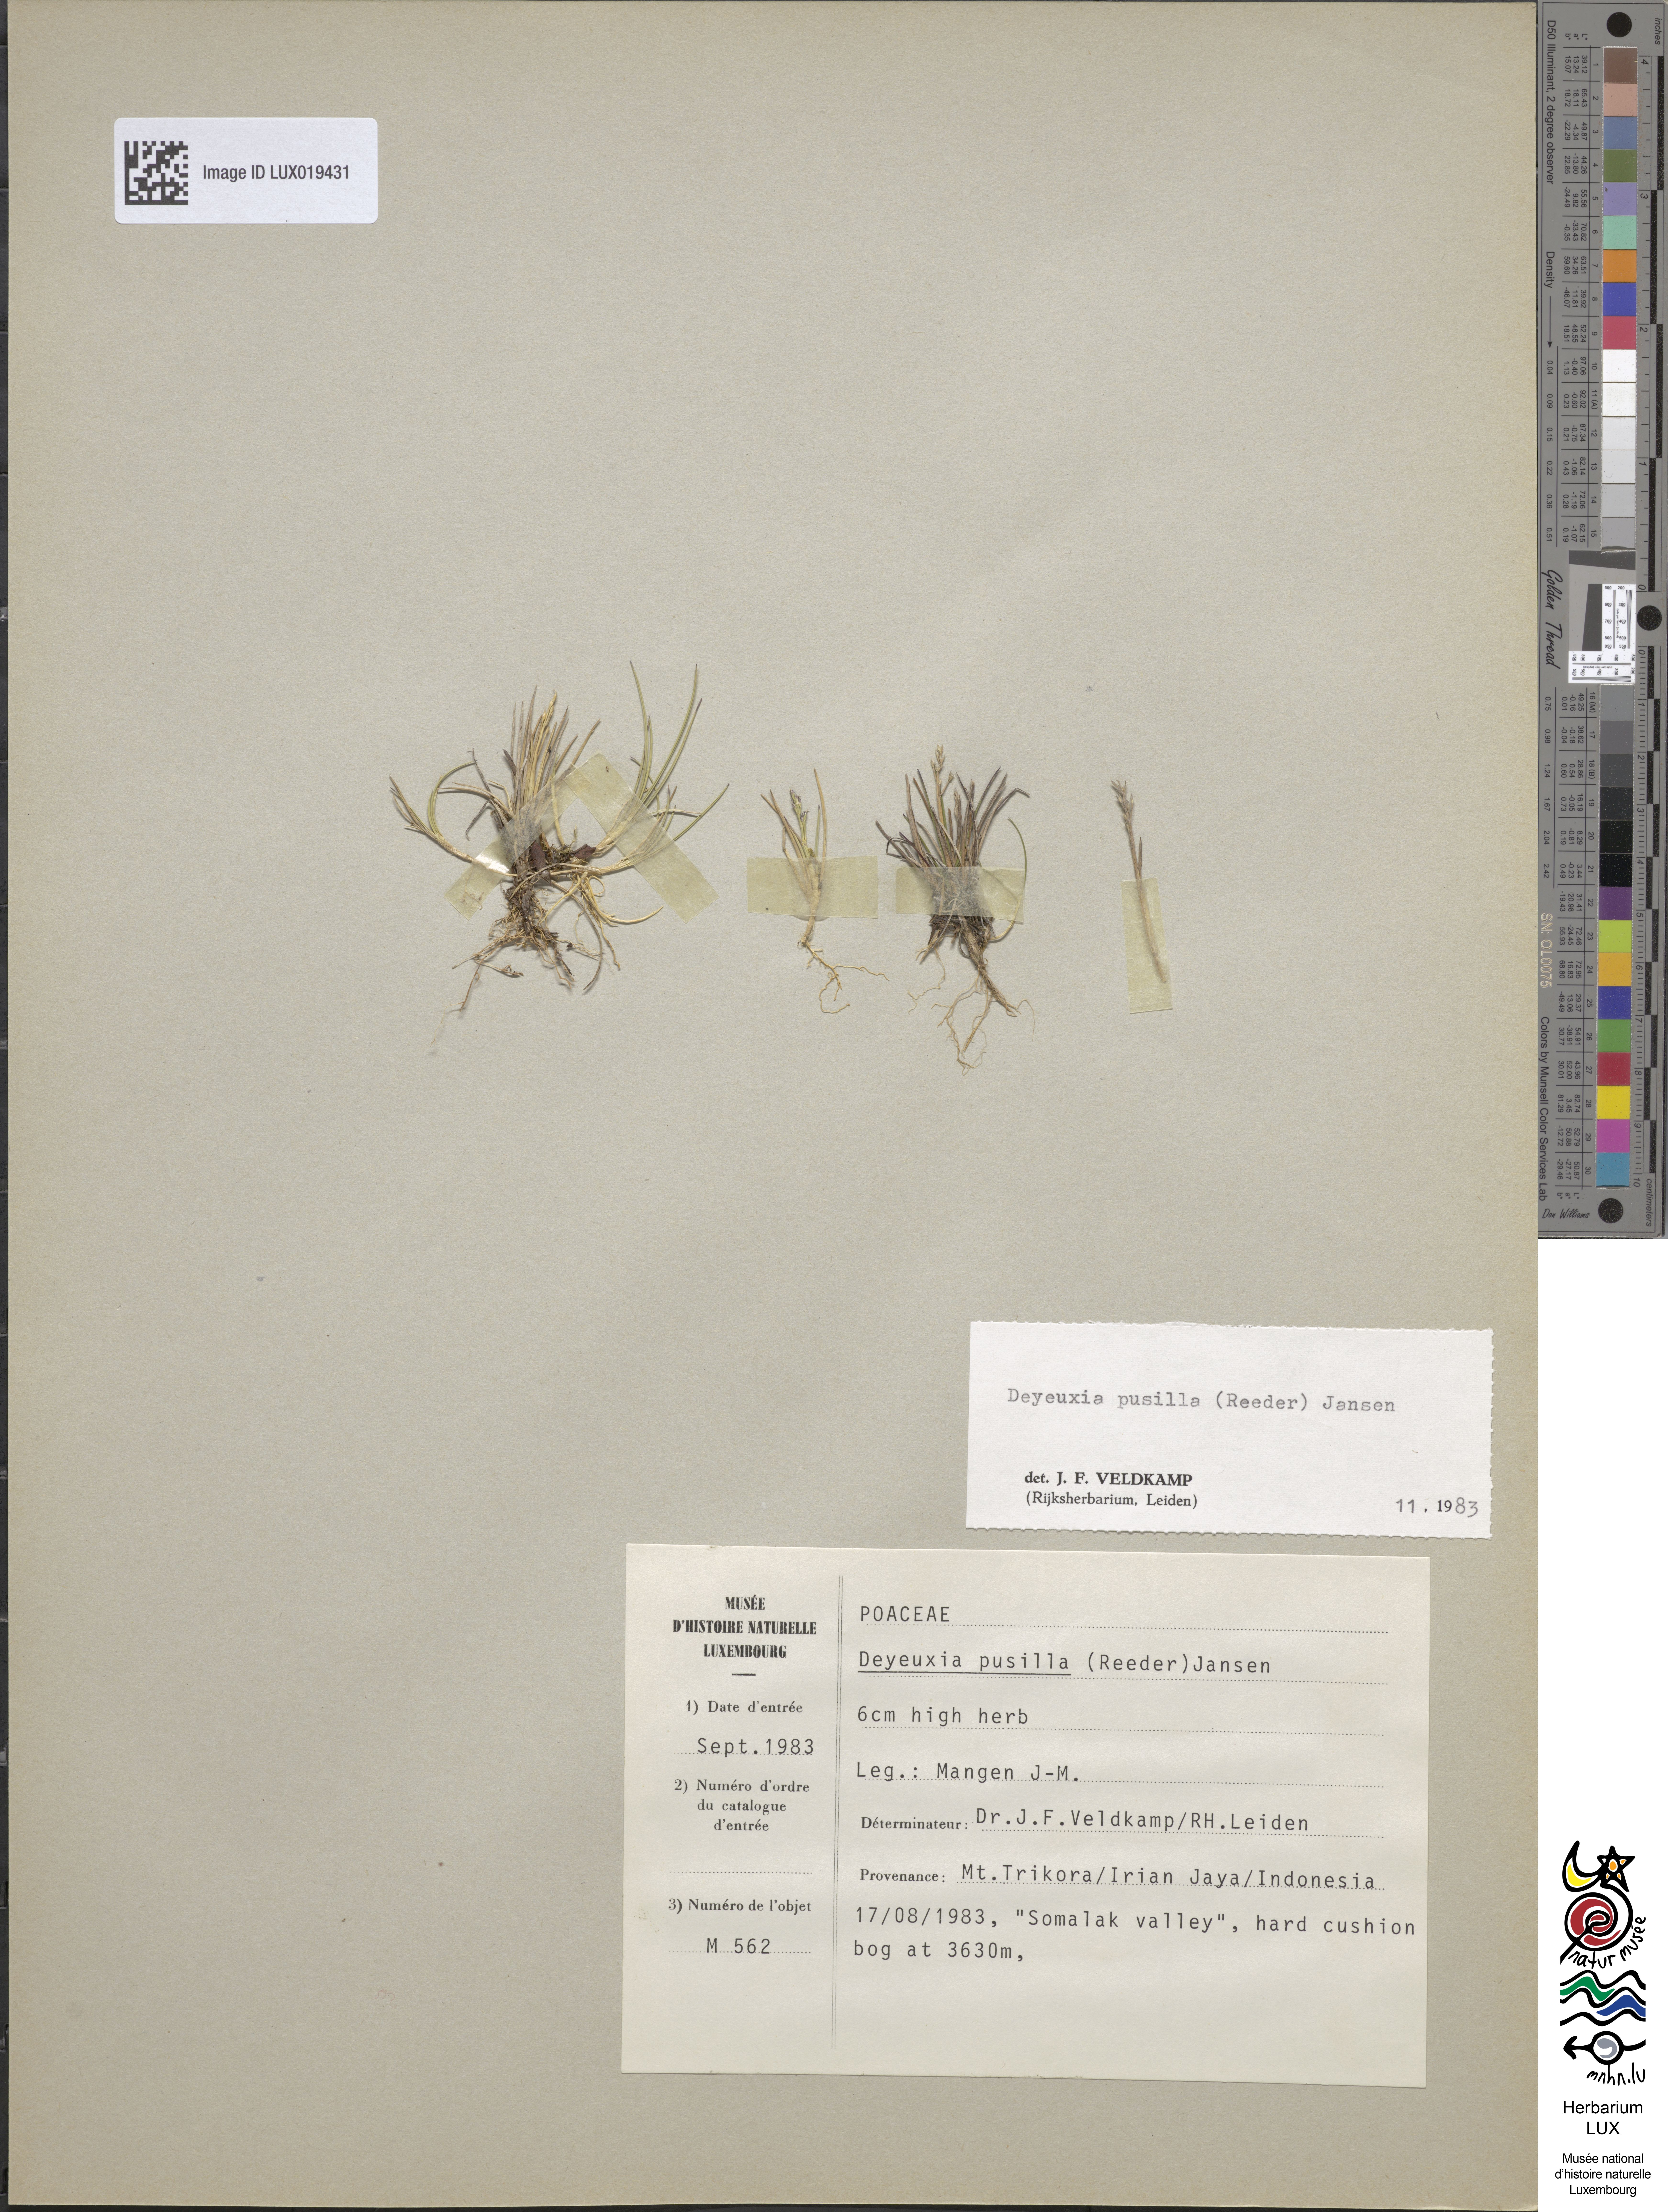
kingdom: Plantae
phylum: Tracheophyta
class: Liliopsida
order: Poales
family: Poaceae
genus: Calamagrostis
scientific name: Calamagrostis pusilla
